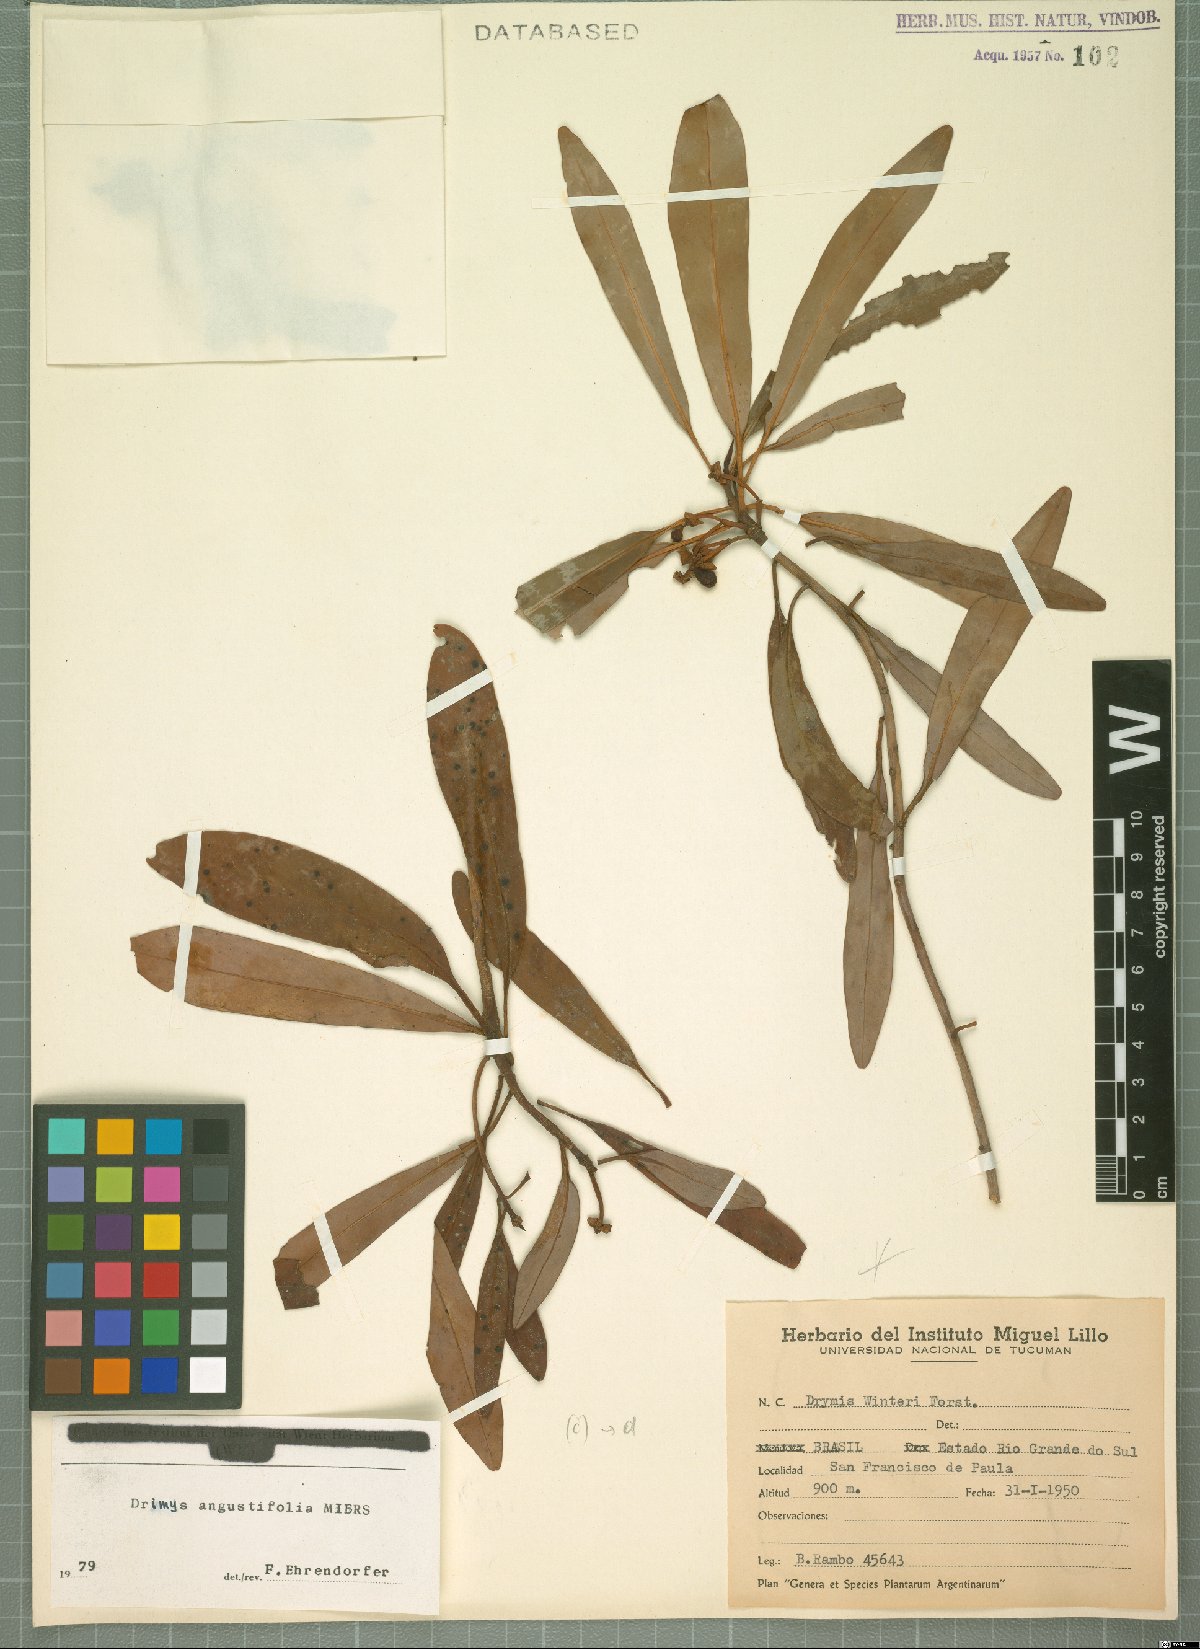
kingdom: Plantae
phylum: Tracheophyta
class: Magnoliopsida
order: Canellales
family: Winteraceae
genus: Drimys
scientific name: Drimys angustifolia
